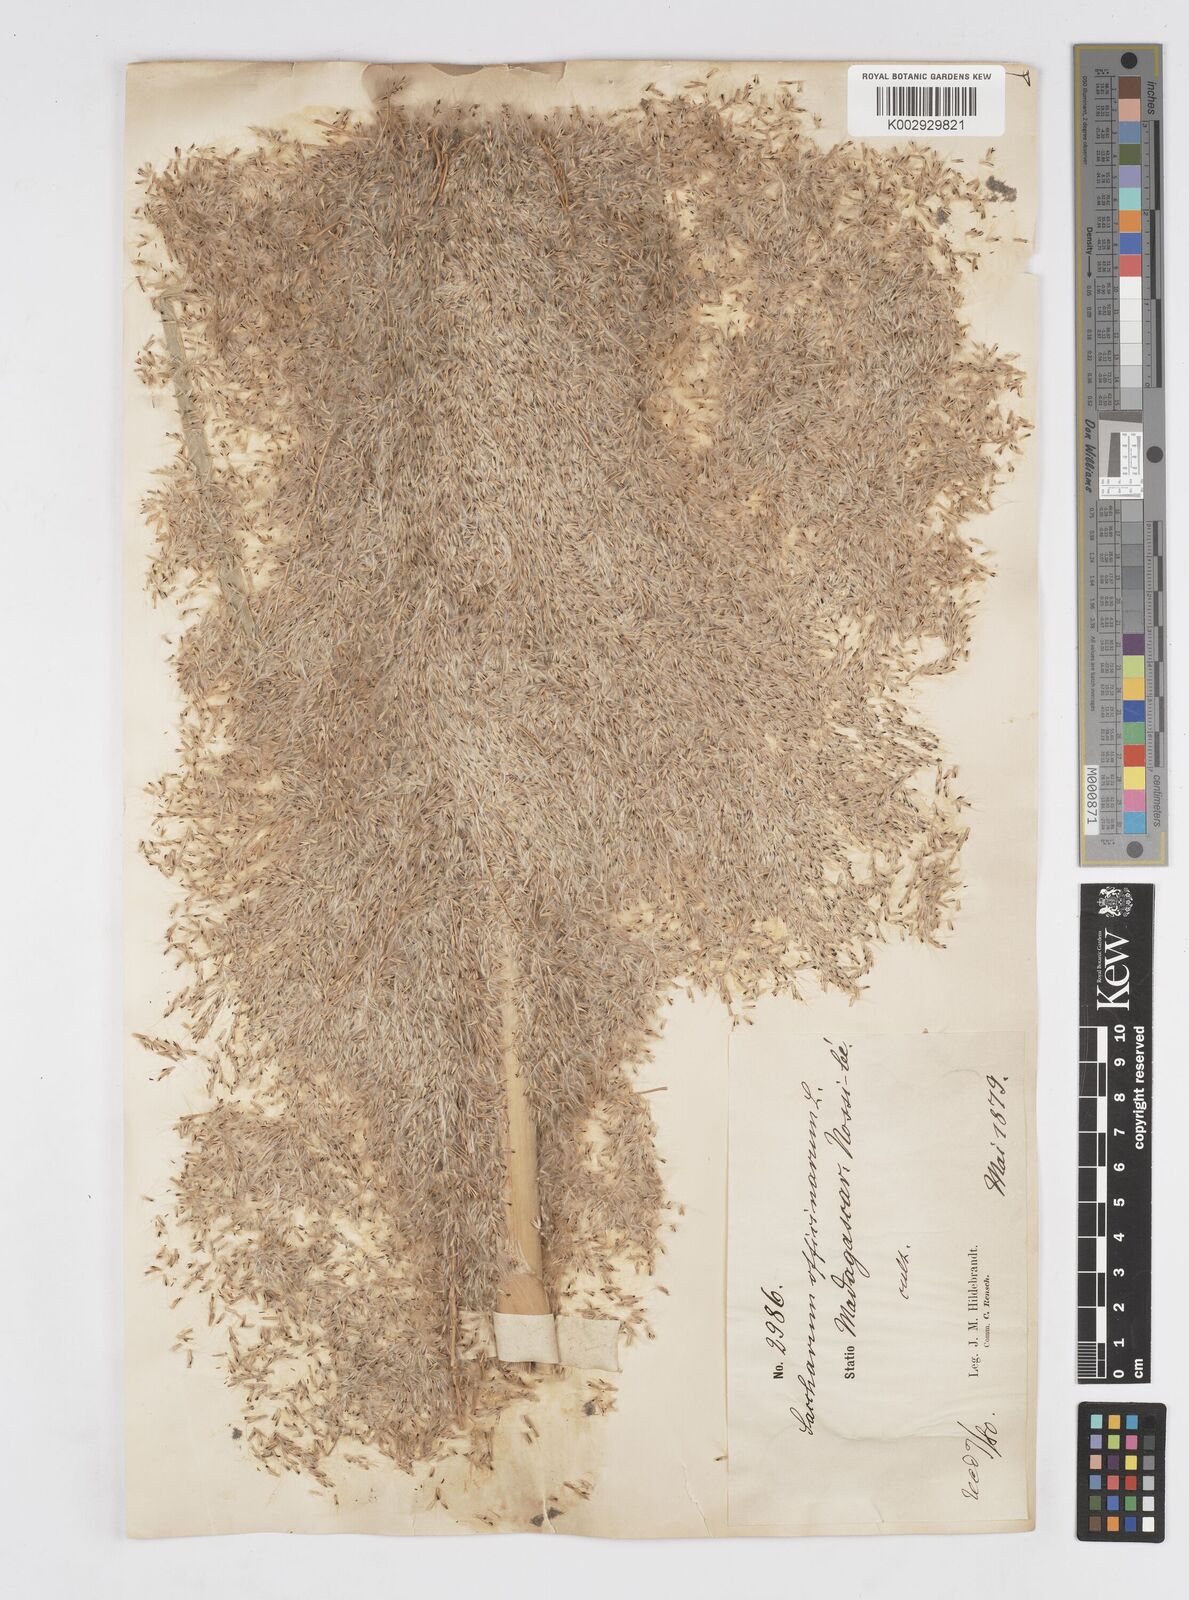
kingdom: Plantae
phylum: Tracheophyta
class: Liliopsida
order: Poales
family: Poaceae
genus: Saccharum
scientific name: Saccharum officinarum
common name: Sugarcane
